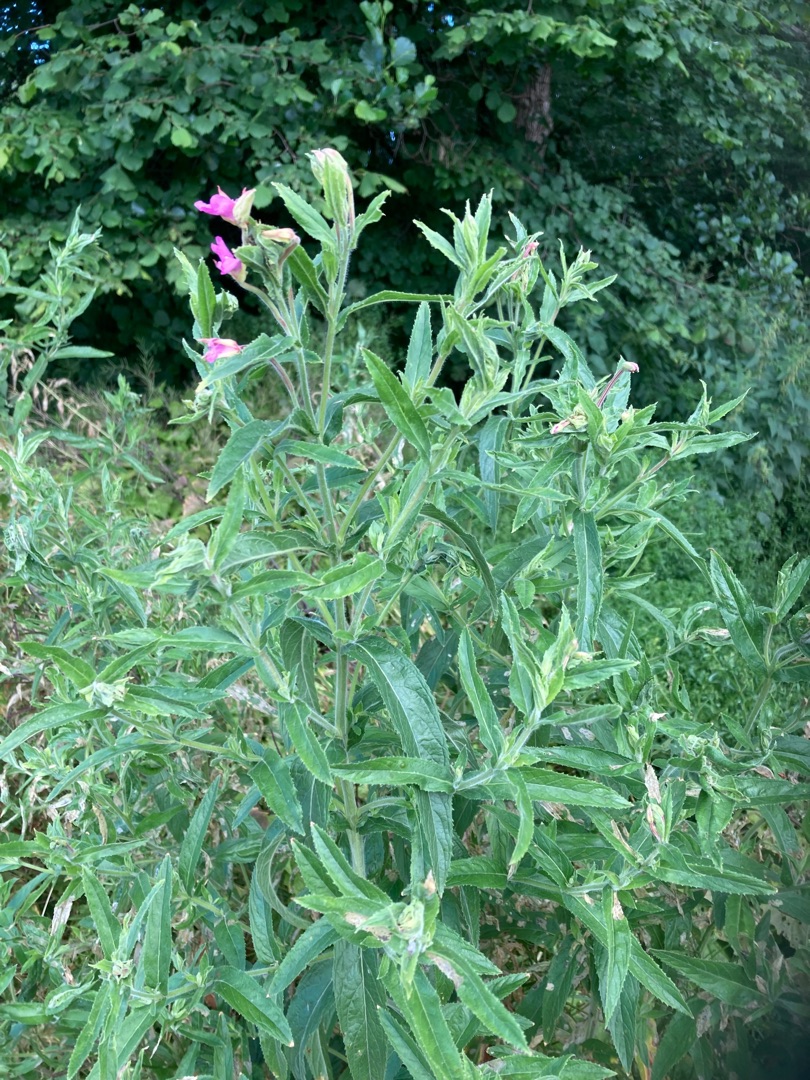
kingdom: Plantae
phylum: Tracheophyta
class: Magnoliopsida
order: Myrtales
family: Onagraceae
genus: Epilobium
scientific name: Epilobium hirsutum
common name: Lådden dueurt
